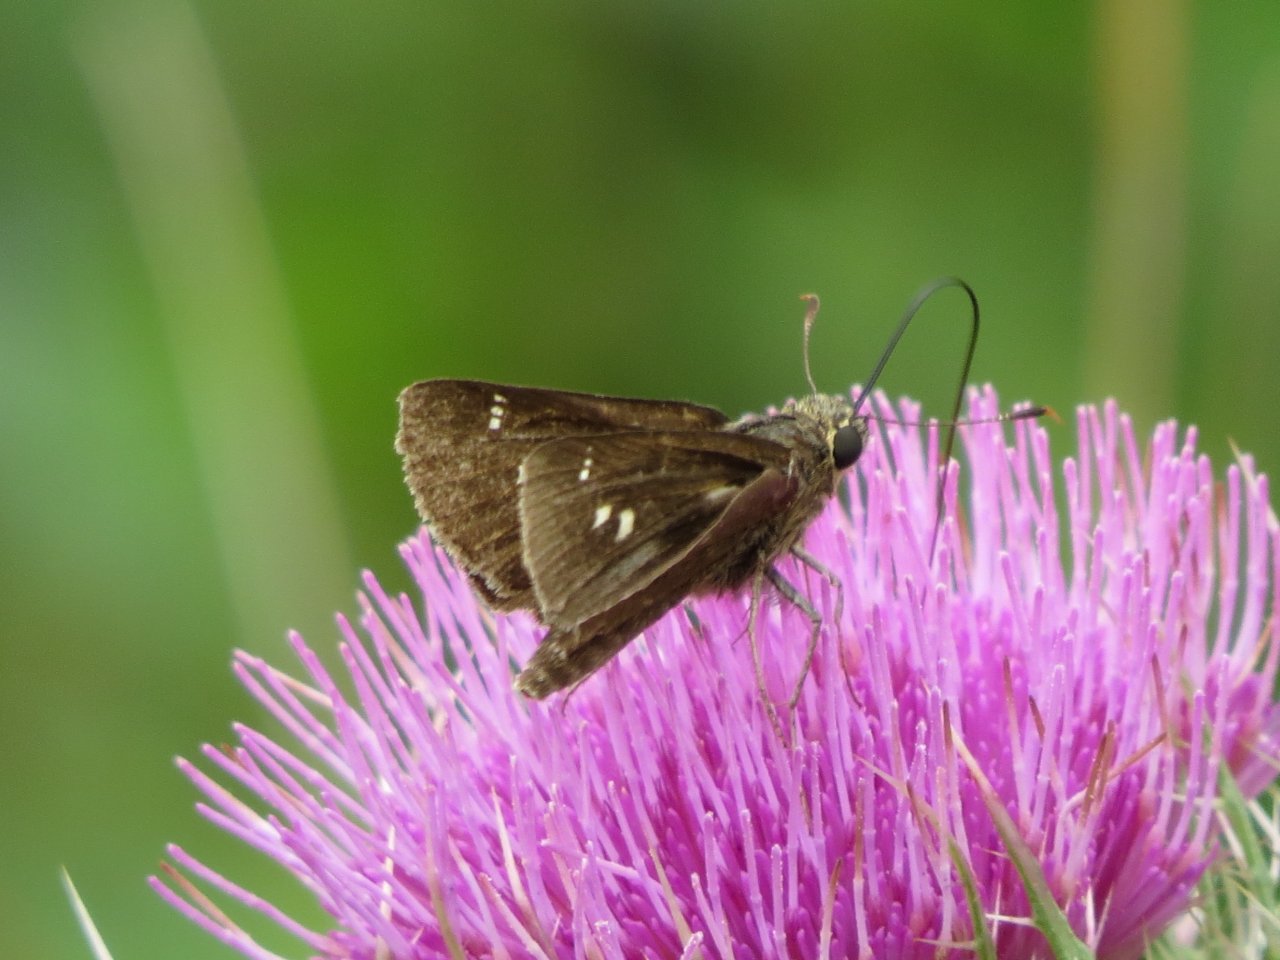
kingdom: Animalia
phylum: Arthropoda
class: Insecta
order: Lepidoptera
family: Hesperiidae
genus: Oligoria
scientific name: Oligoria maculata
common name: Twin-spot Skipper
